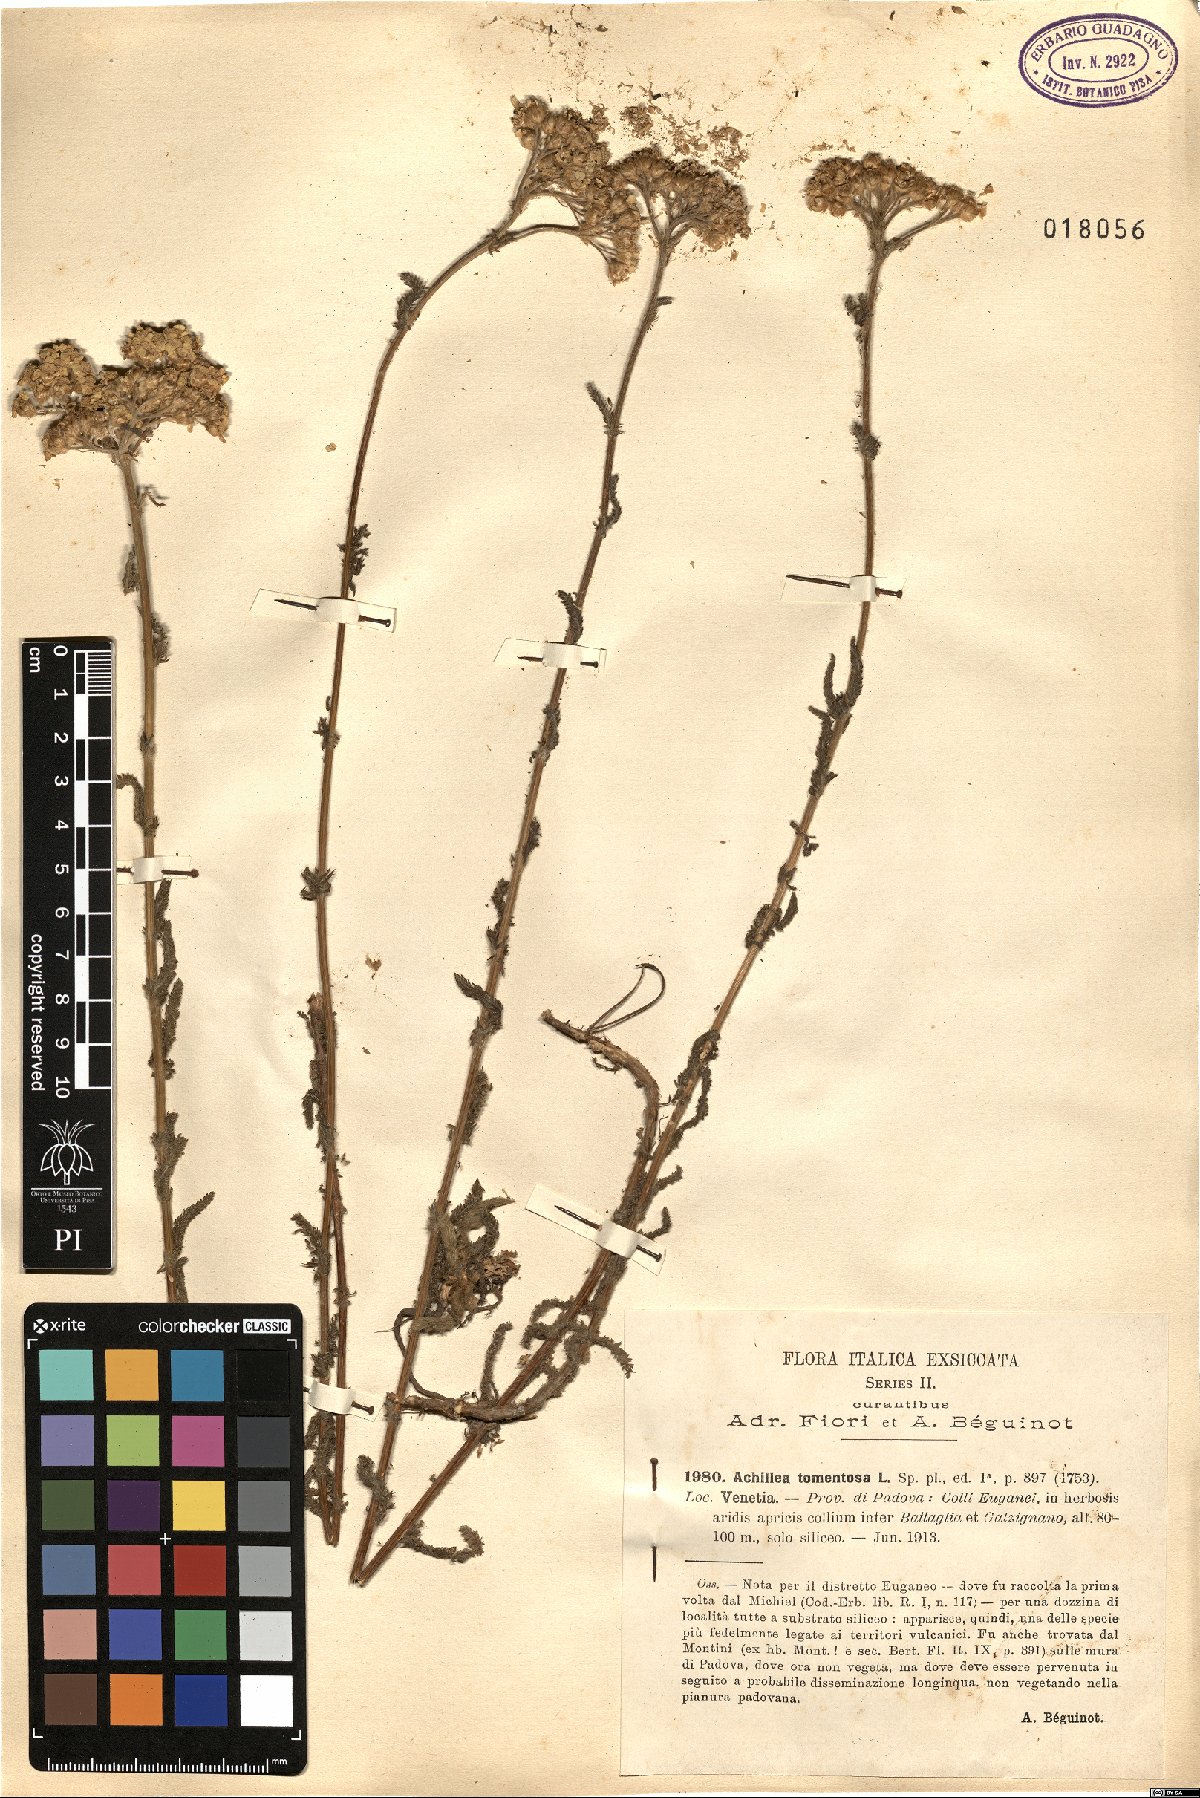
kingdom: Plantae
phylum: Tracheophyta
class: Magnoliopsida
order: Asterales
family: Asteraceae
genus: Achillea
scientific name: Achillea tomentosa
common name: Yellow milfoil
